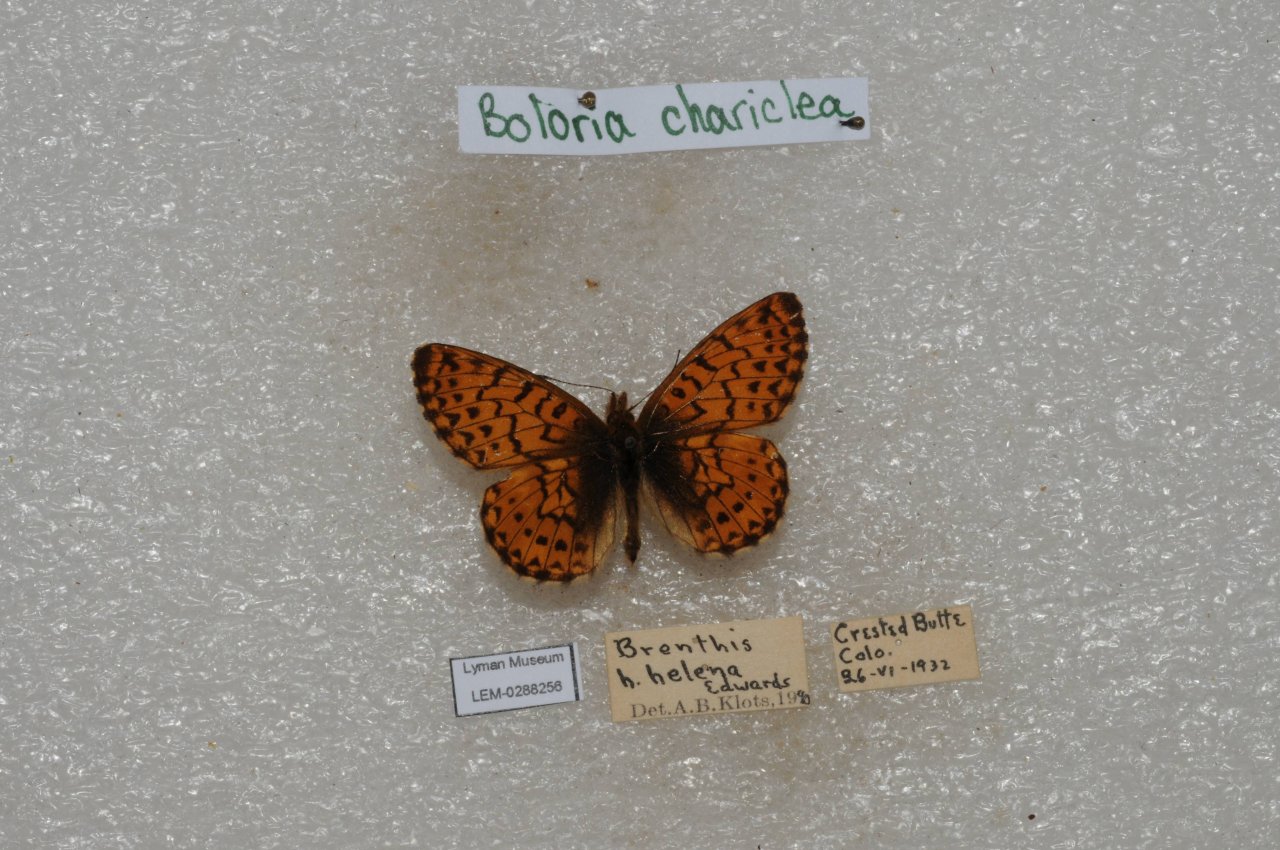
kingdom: Animalia
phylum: Arthropoda
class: Insecta
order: Lepidoptera
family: Nymphalidae
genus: Boloria
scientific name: Boloria chariclea
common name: Arctic Fritillary
